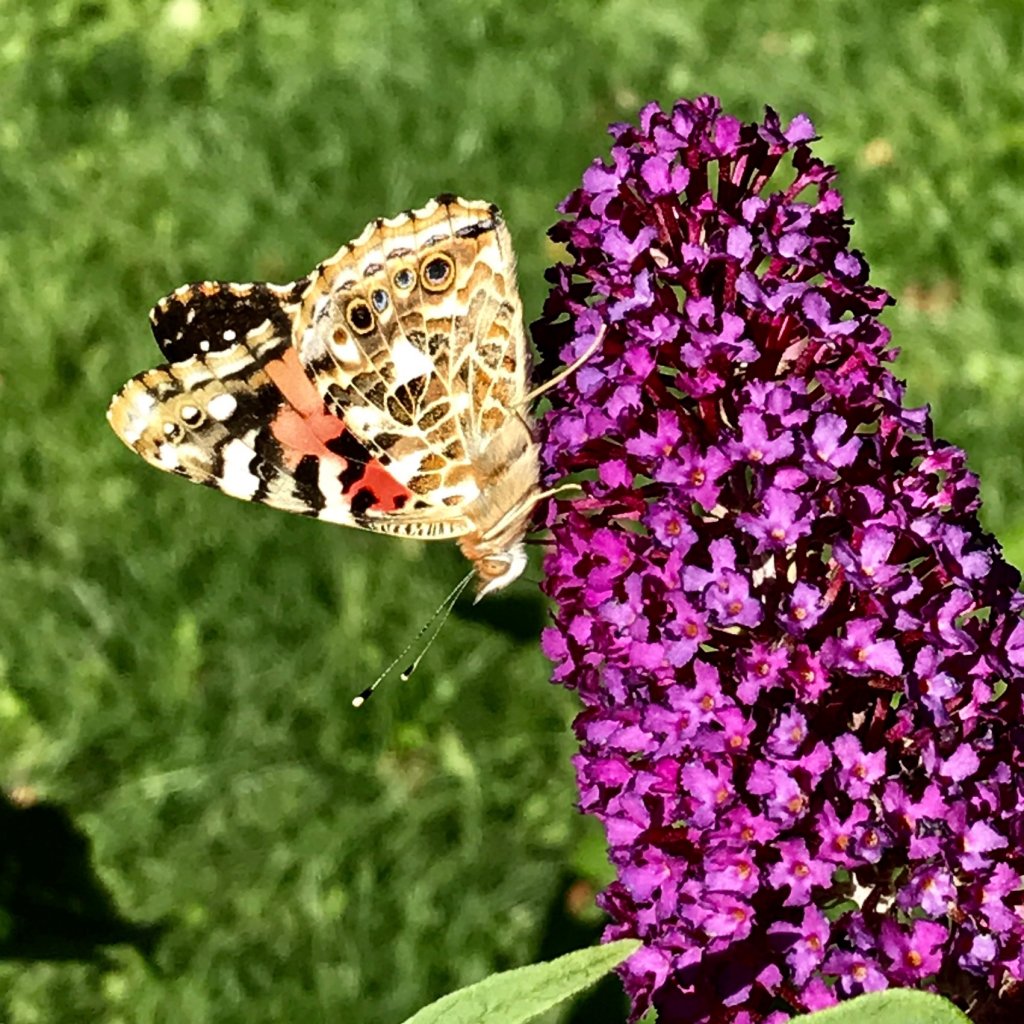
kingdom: Animalia
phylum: Arthropoda
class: Insecta
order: Lepidoptera
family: Nymphalidae
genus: Vanessa
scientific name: Vanessa cardui
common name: Painted Lady
